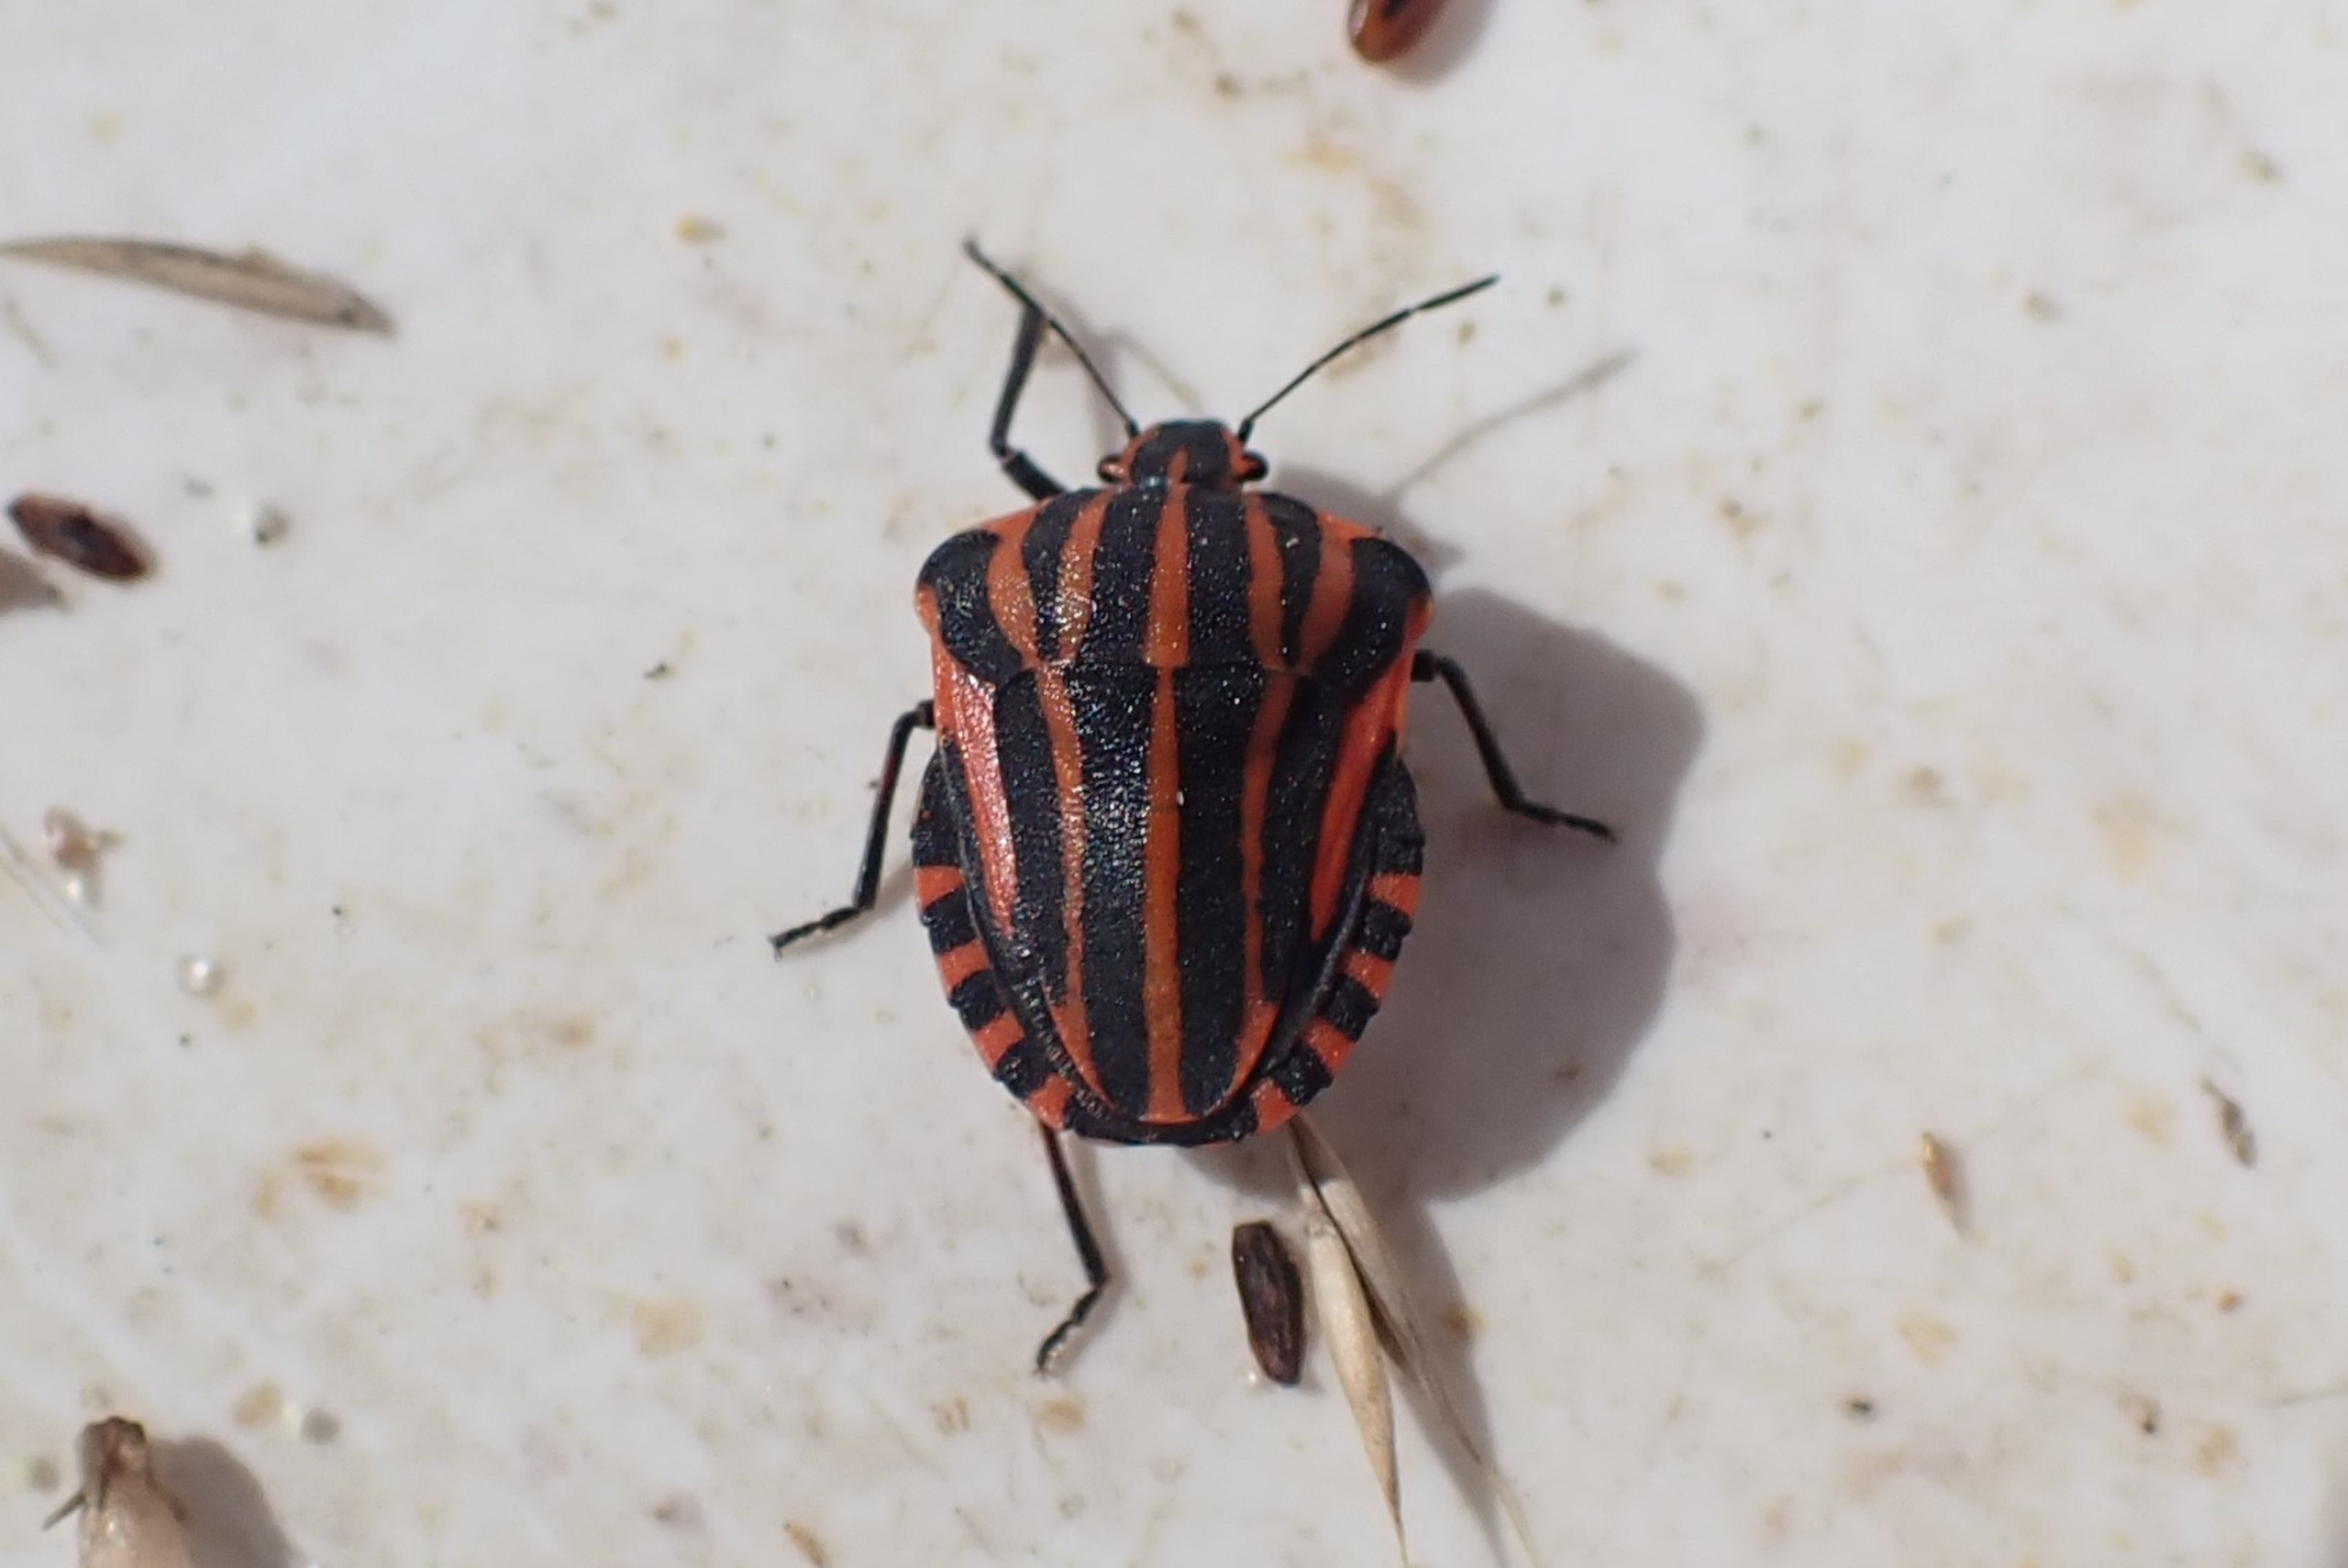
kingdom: Animalia
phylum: Arthropoda
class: Insecta
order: Hemiptera
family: Pentatomidae
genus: Graphosoma
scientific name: Graphosoma italicum
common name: Stribetæge
